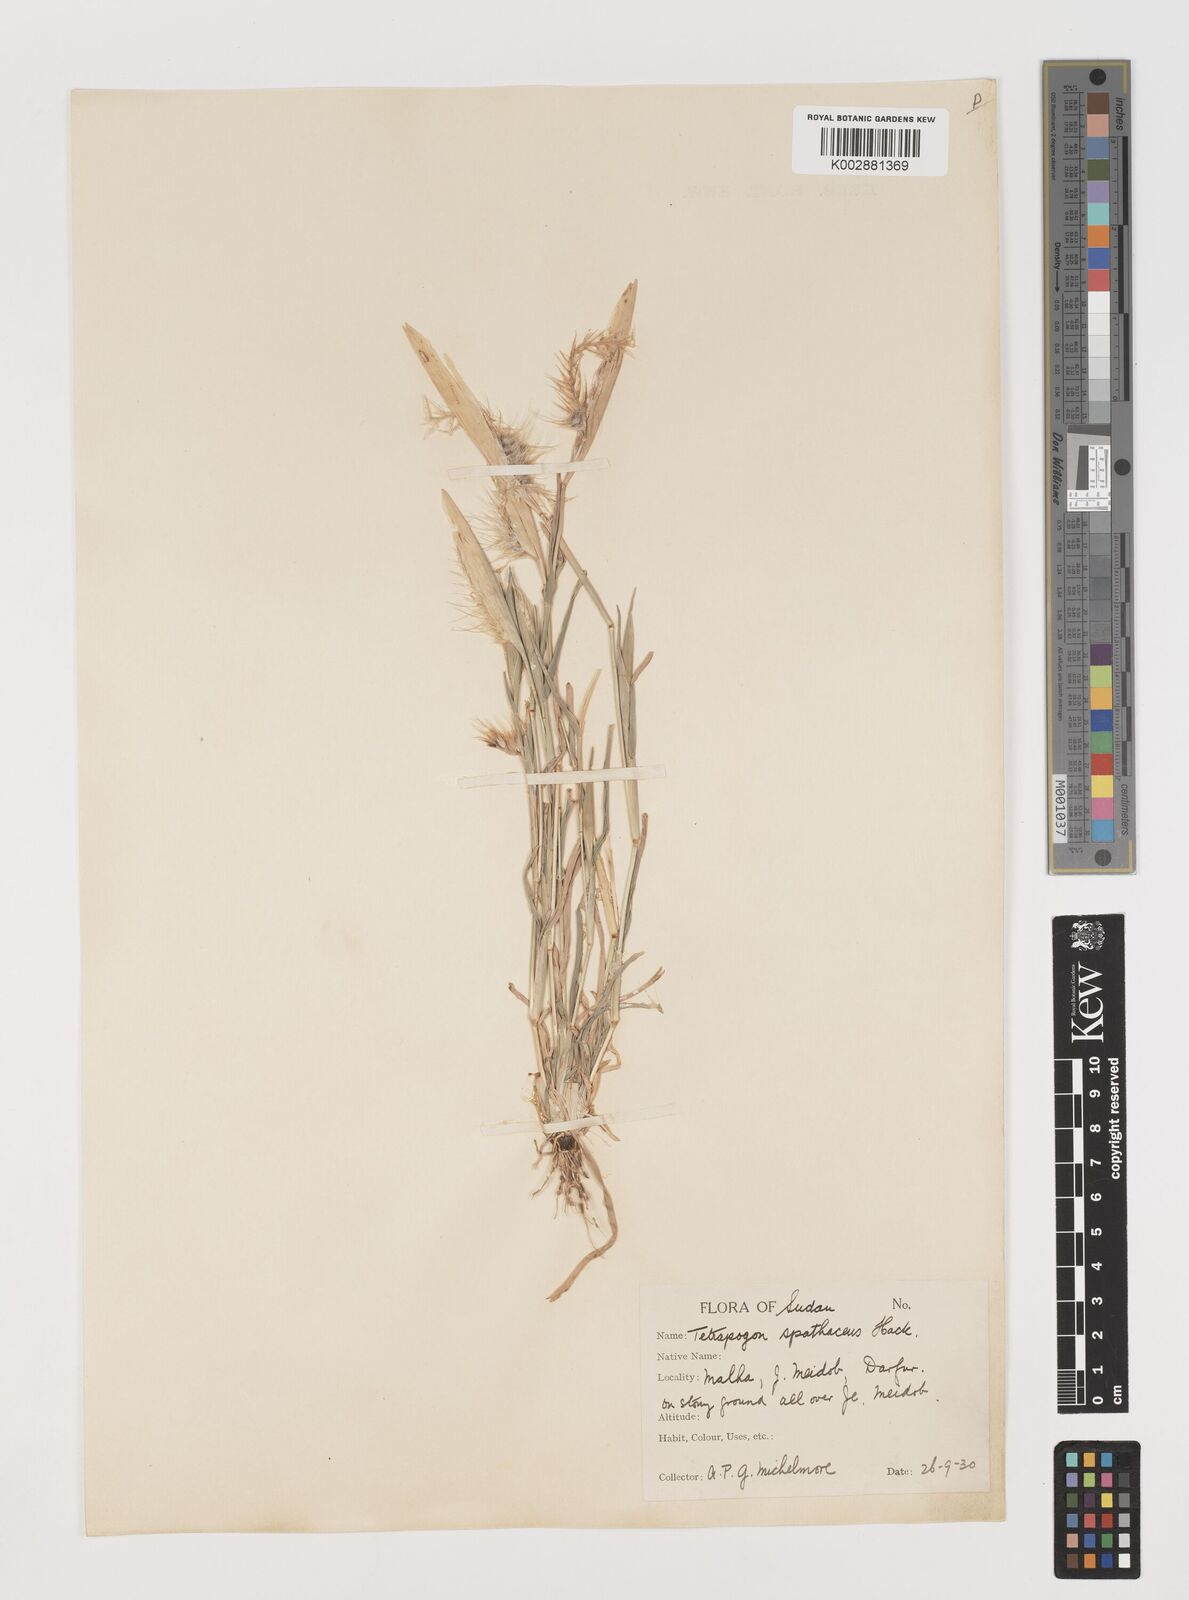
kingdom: Plantae
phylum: Tracheophyta
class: Liliopsida
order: Poales
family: Poaceae
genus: Tetrapogon
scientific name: Tetrapogon cenchriformis
